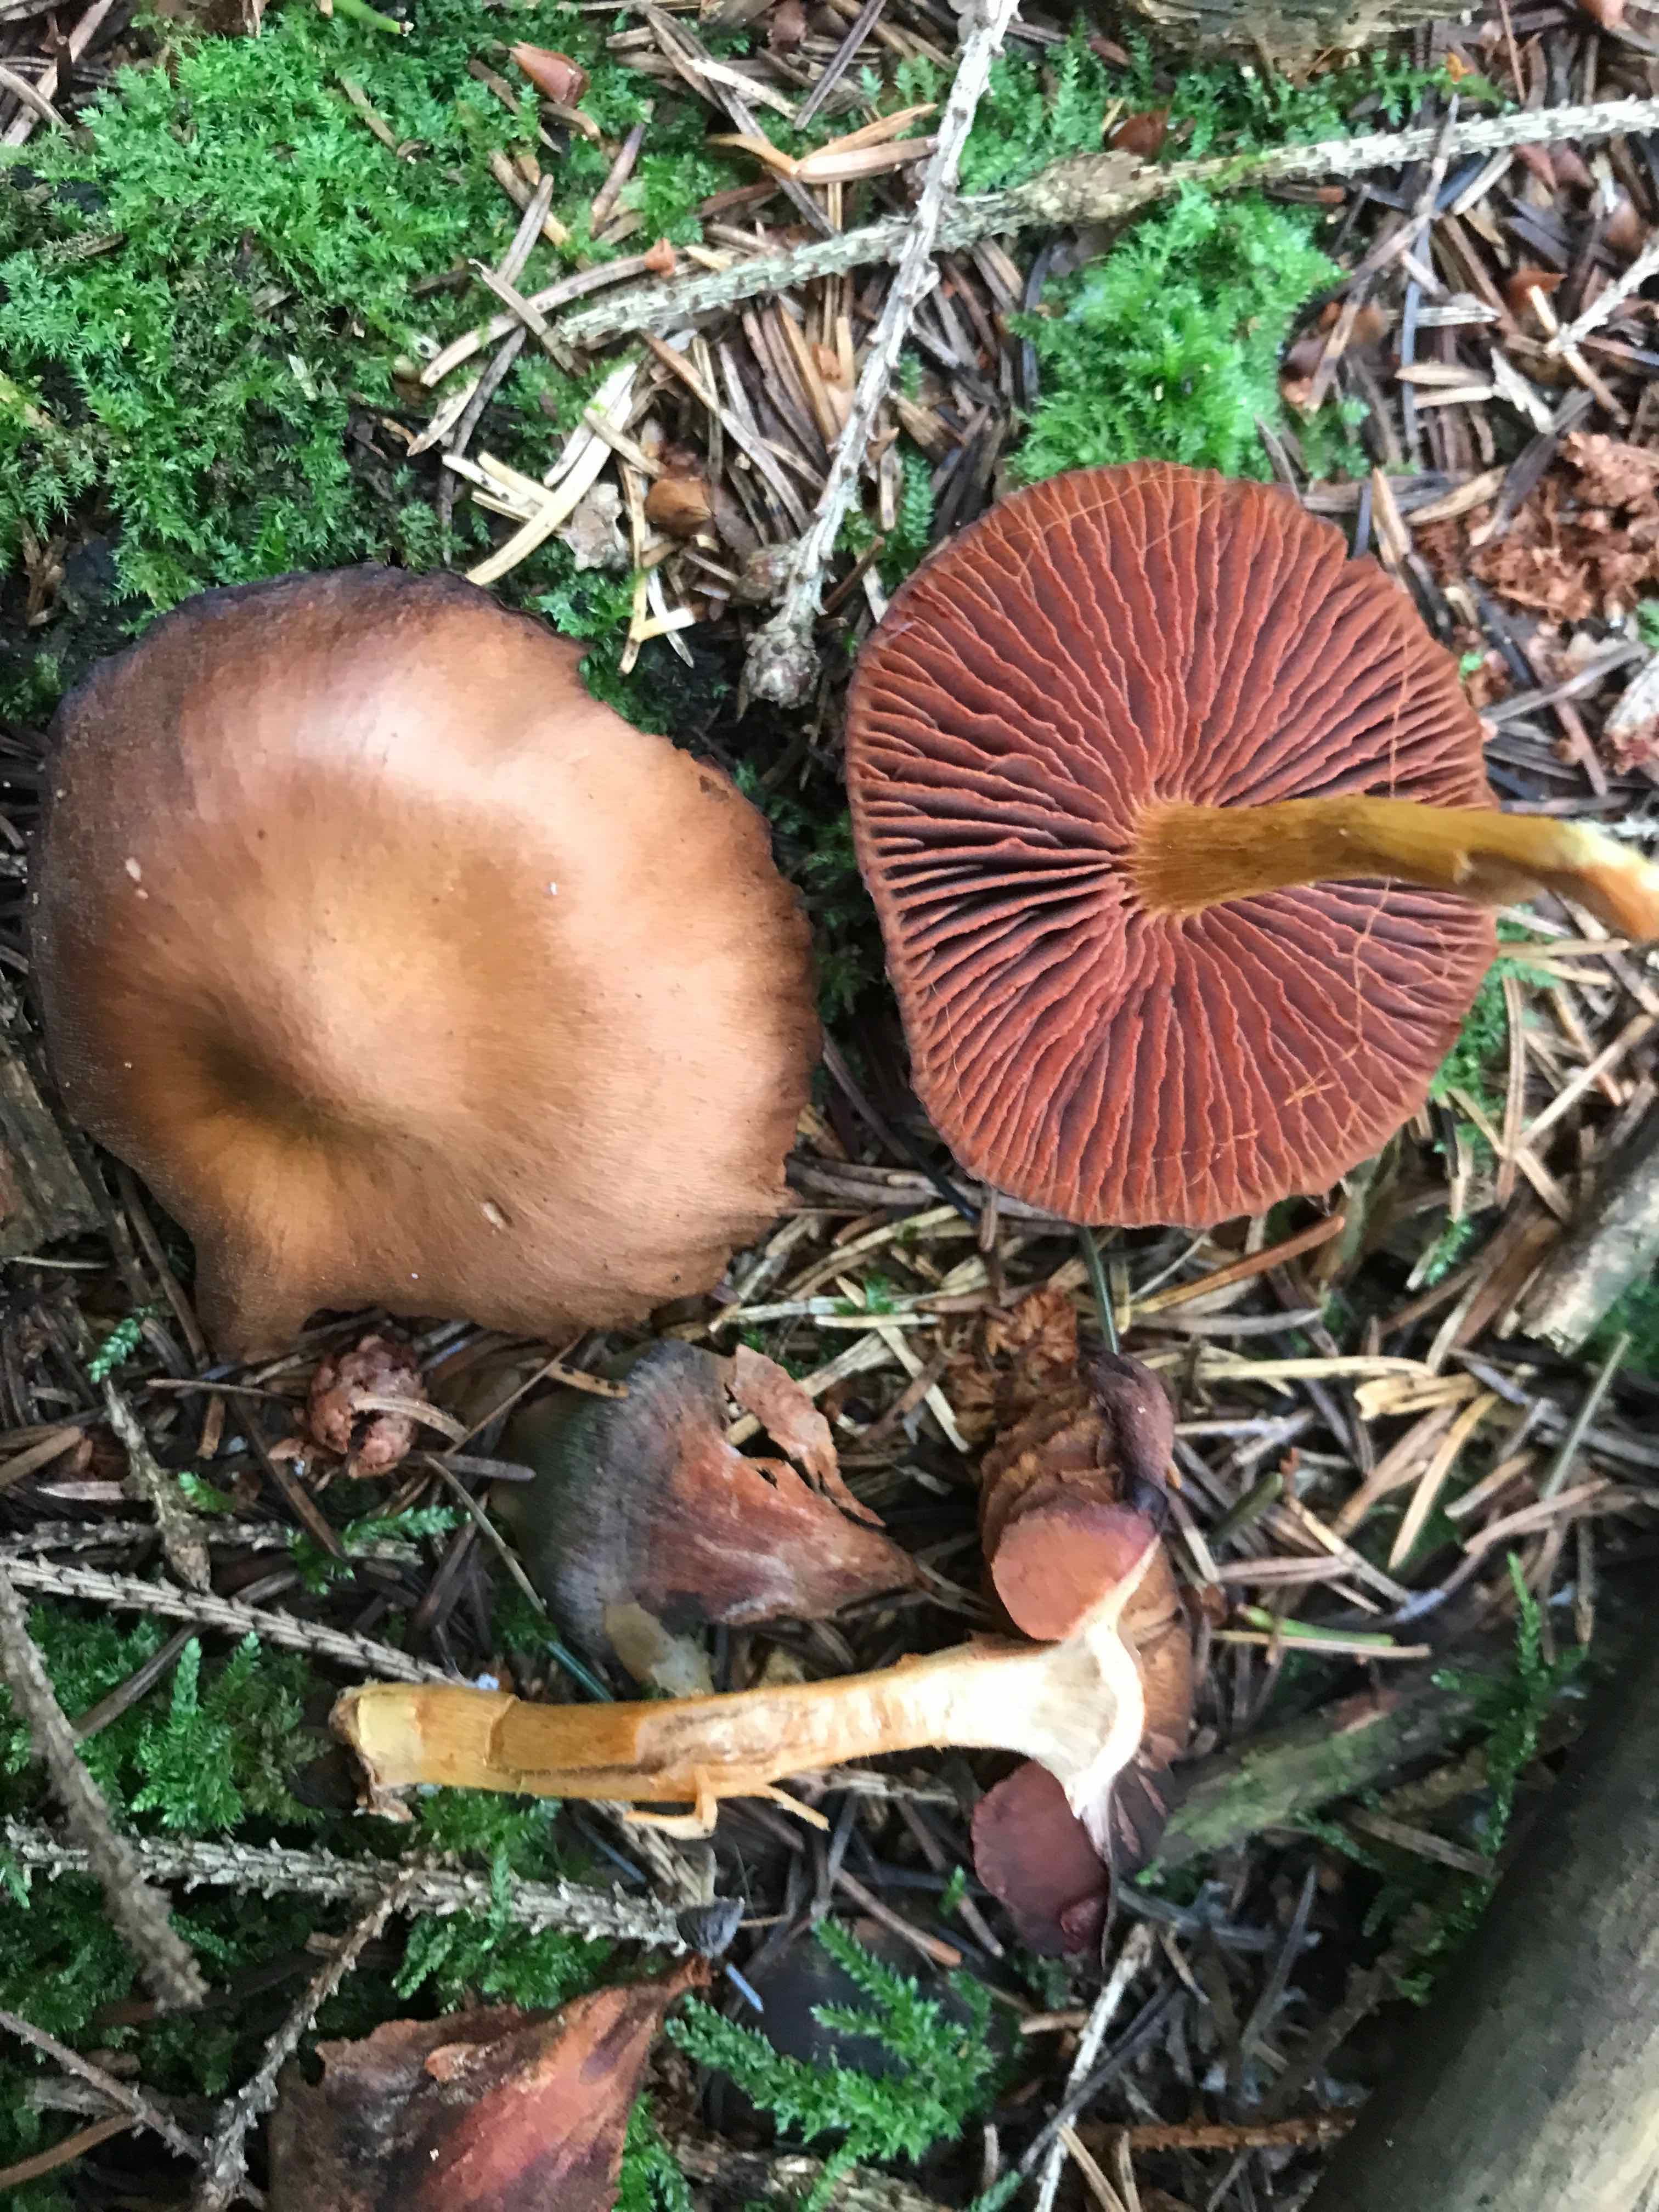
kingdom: Fungi
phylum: Basidiomycota
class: Agaricomycetes
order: Agaricales
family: Cortinariaceae
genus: Cortinarius
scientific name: Cortinarius
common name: cinnoberbladet slørhat
